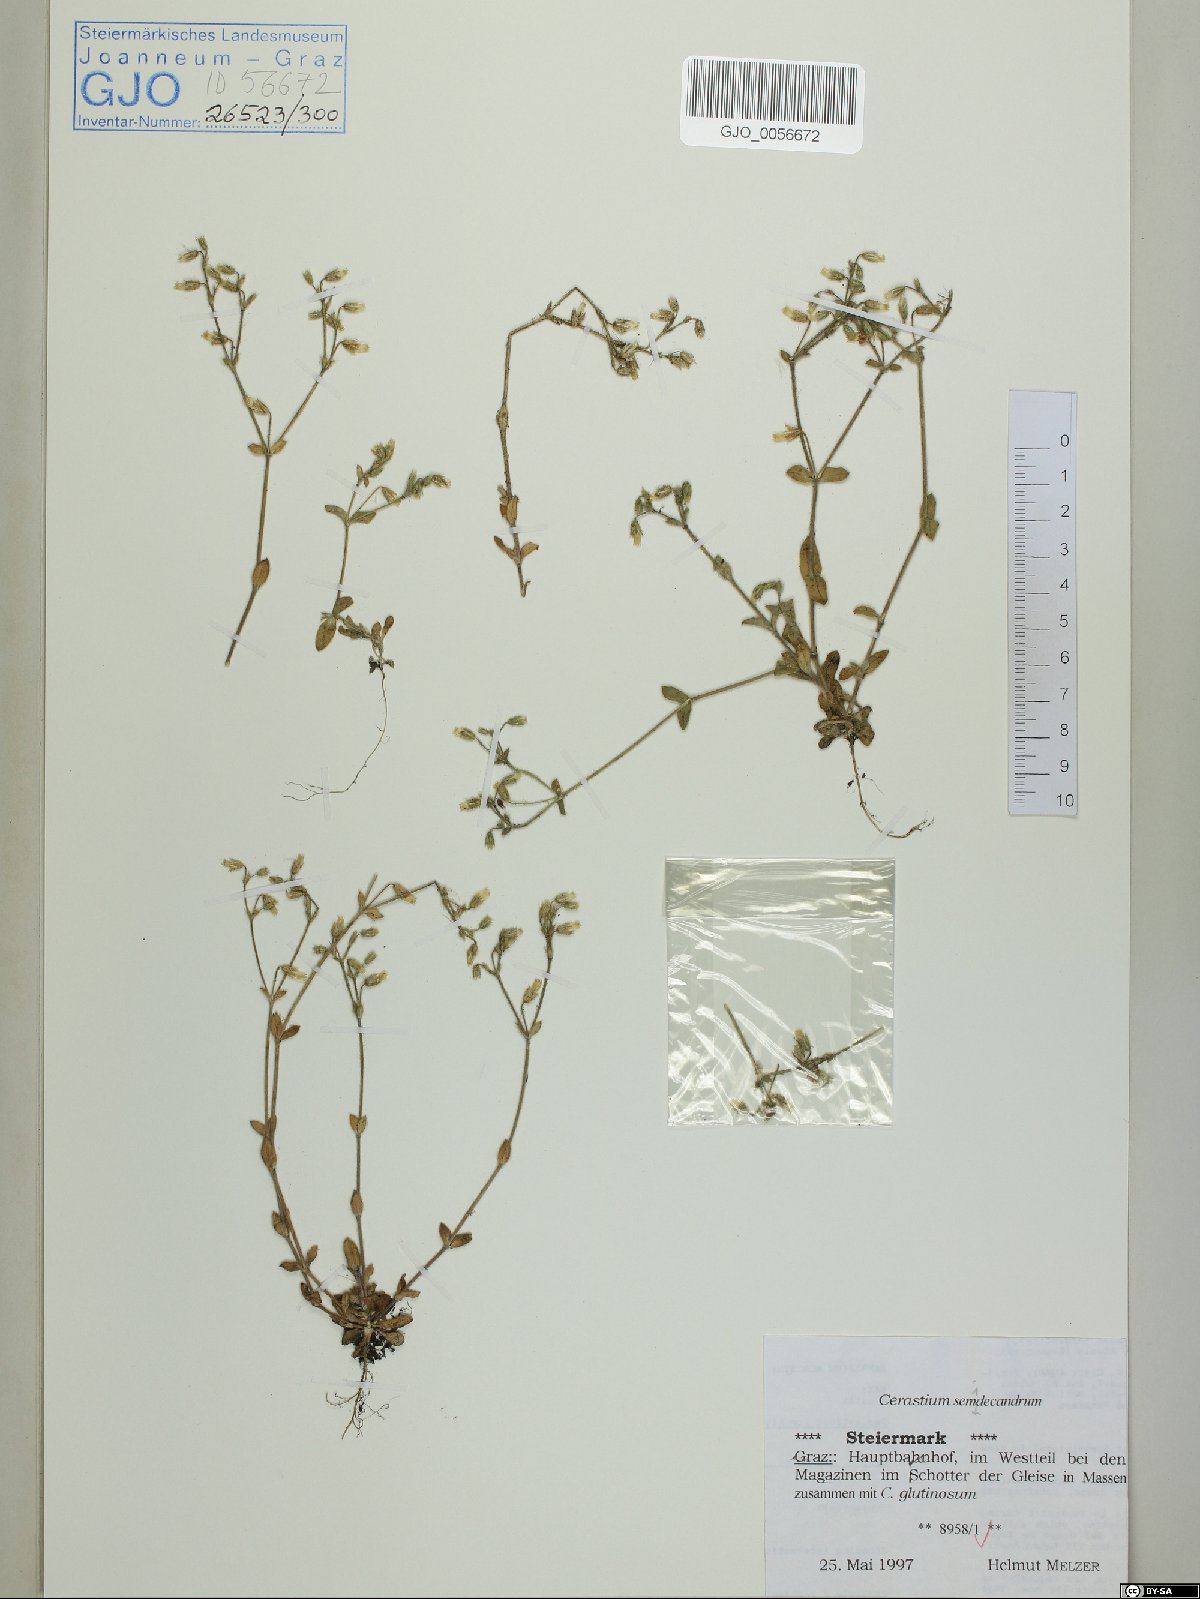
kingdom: Plantae
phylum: Tracheophyta
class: Magnoliopsida
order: Caryophyllales
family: Caryophyllaceae
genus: Cerastium
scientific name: Cerastium semidecandrum
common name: Little mouse-ear
